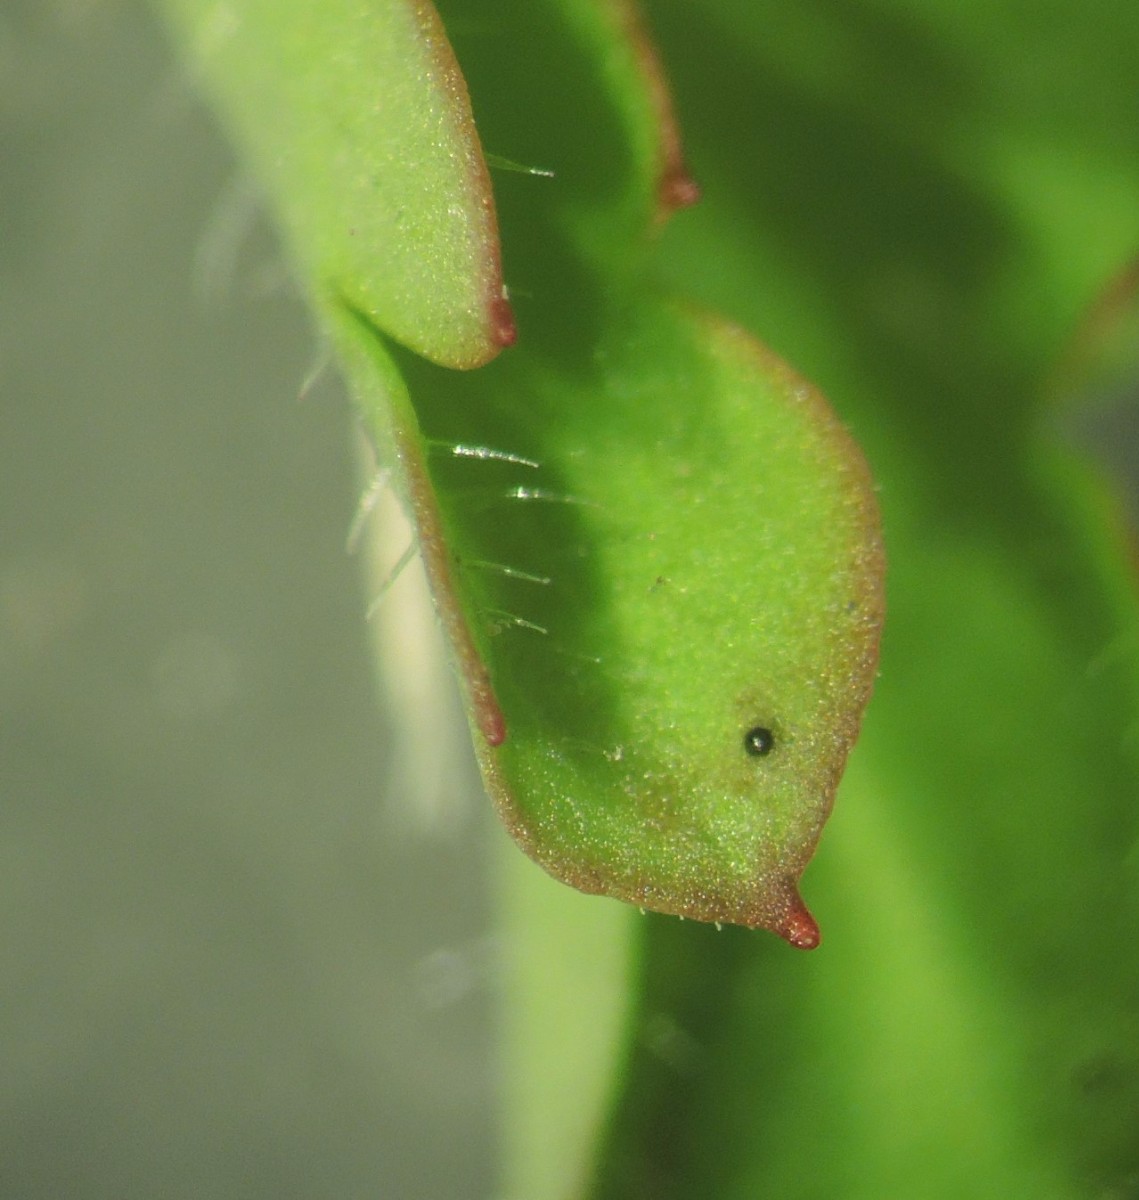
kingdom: Fungi
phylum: Ascomycota
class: Dothideomycetes
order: Venturiales
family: Venturiaceae
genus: Coleroa
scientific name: Coleroa robertiani
